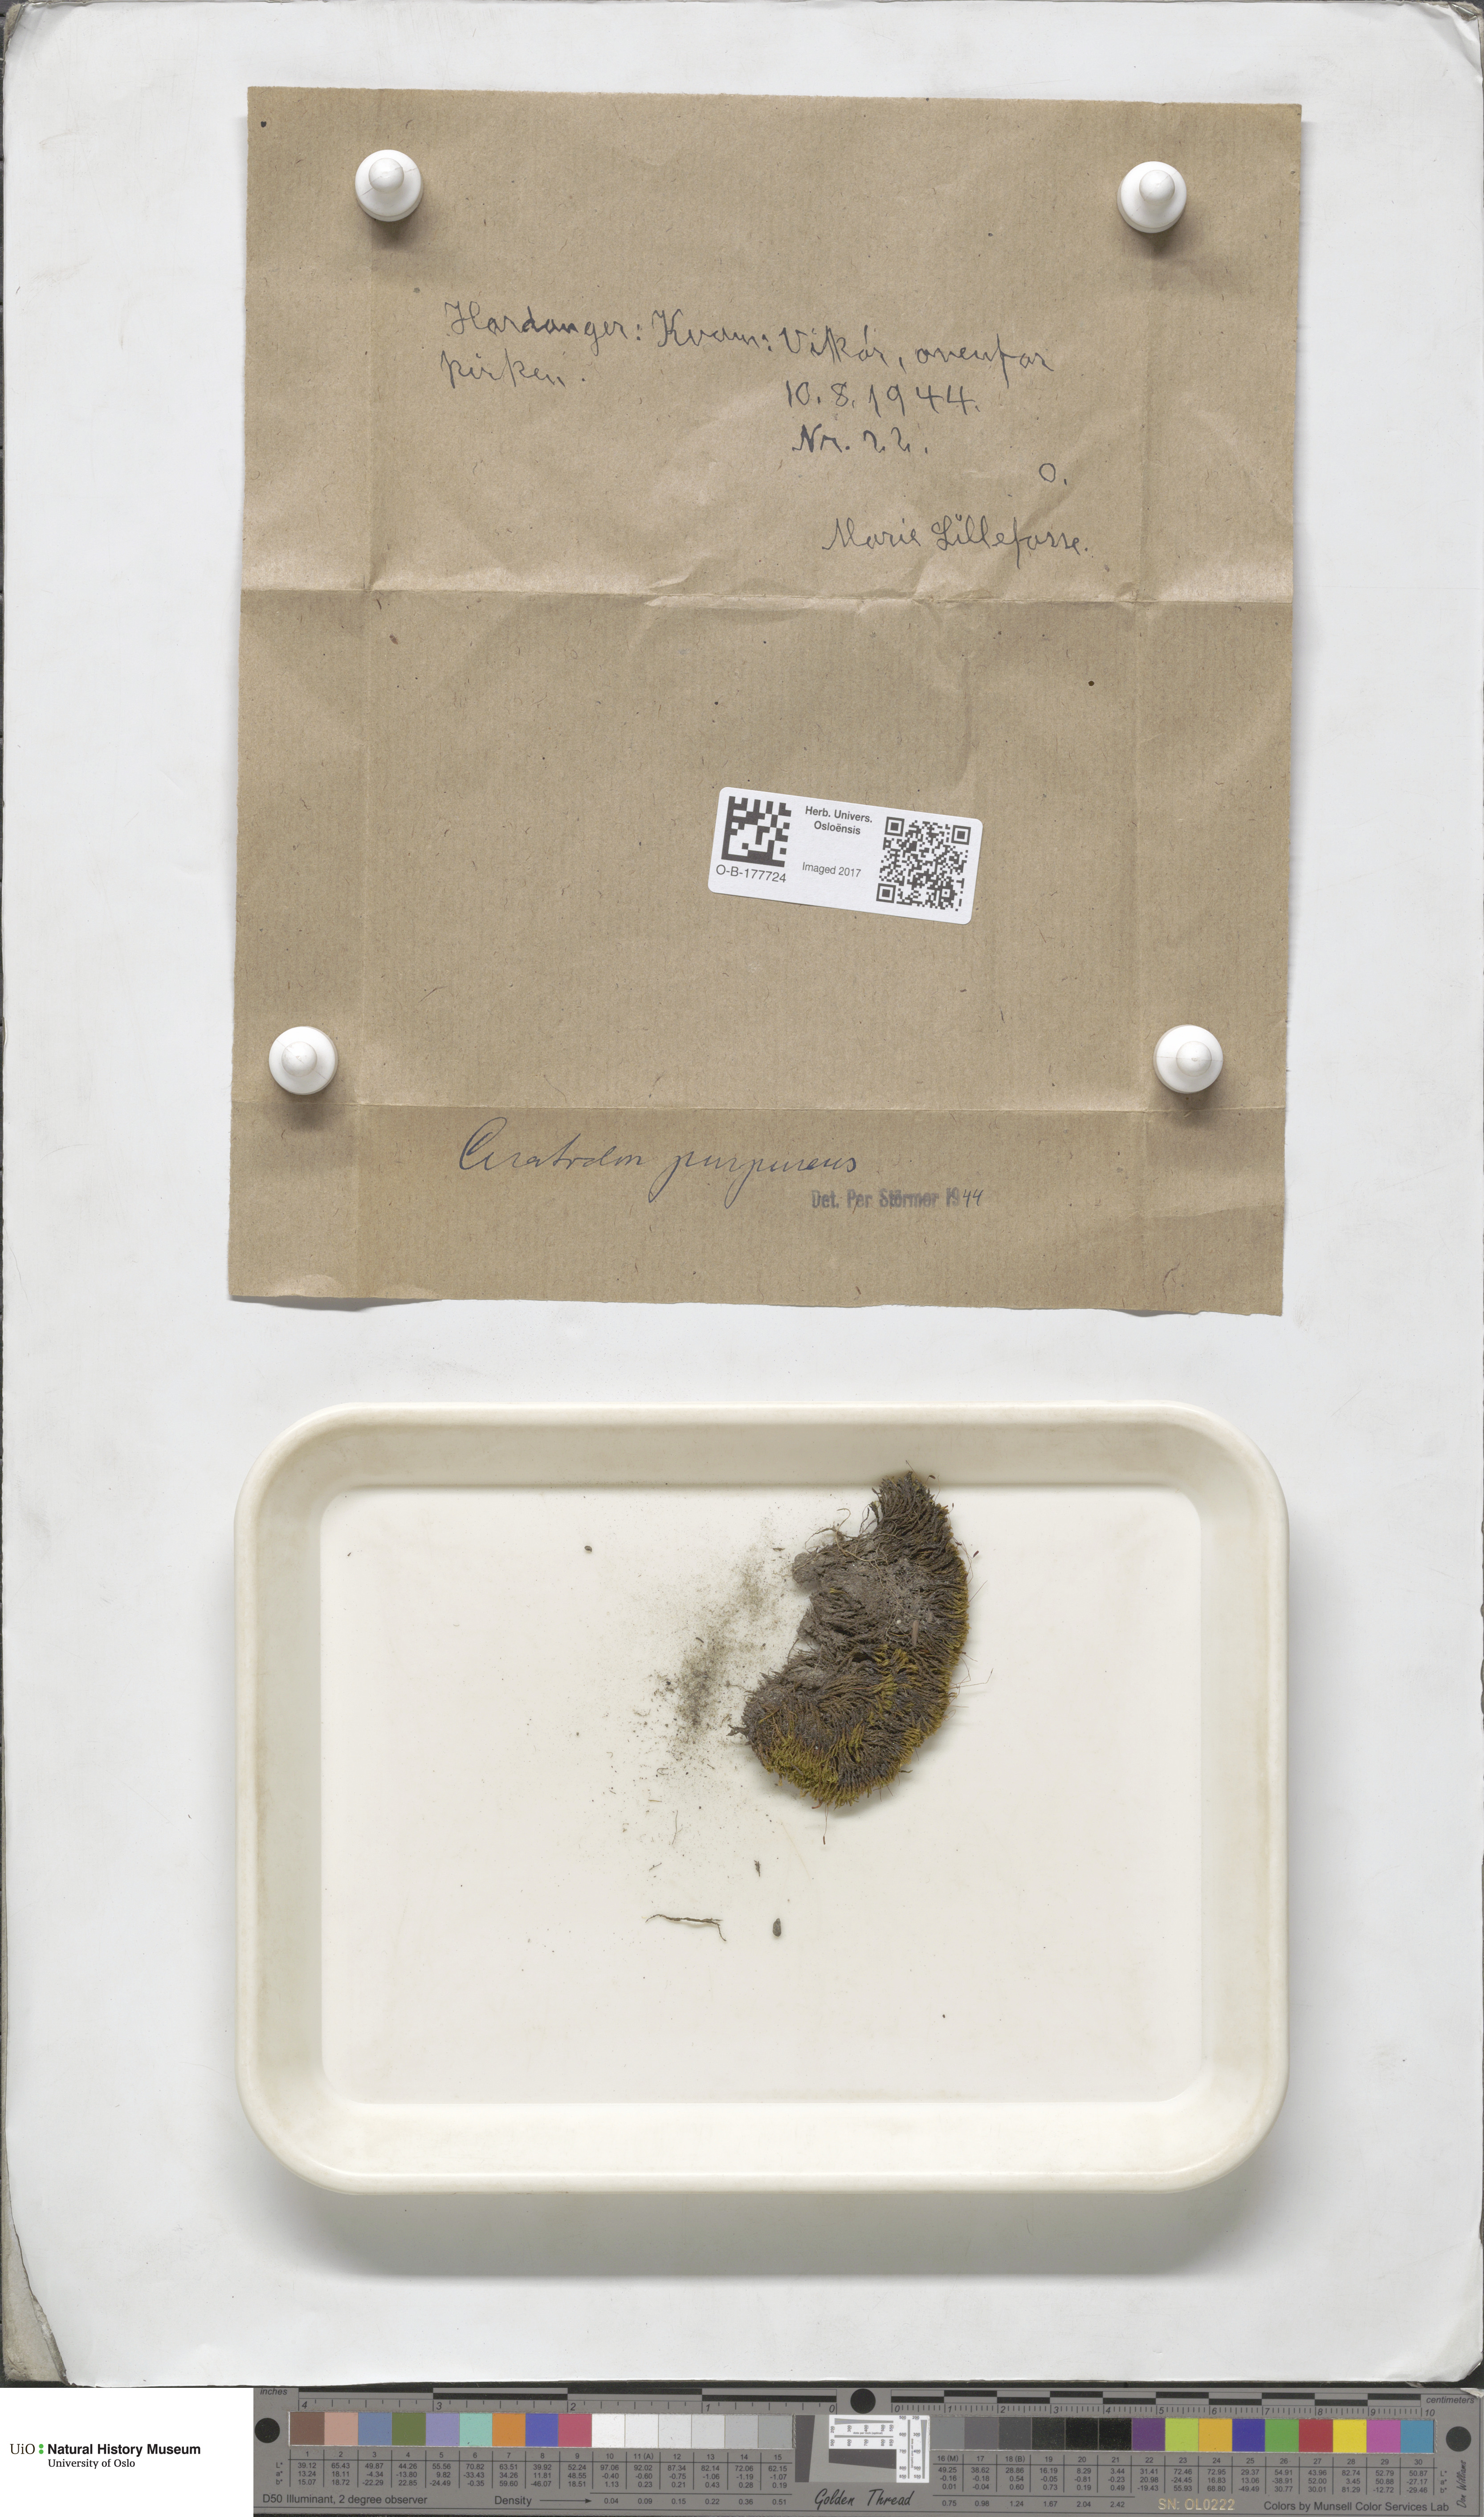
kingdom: Plantae
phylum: Bryophyta
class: Bryopsida
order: Dicranales
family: Ditrichaceae
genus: Ceratodon
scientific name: Ceratodon purpureus
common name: Redshank
